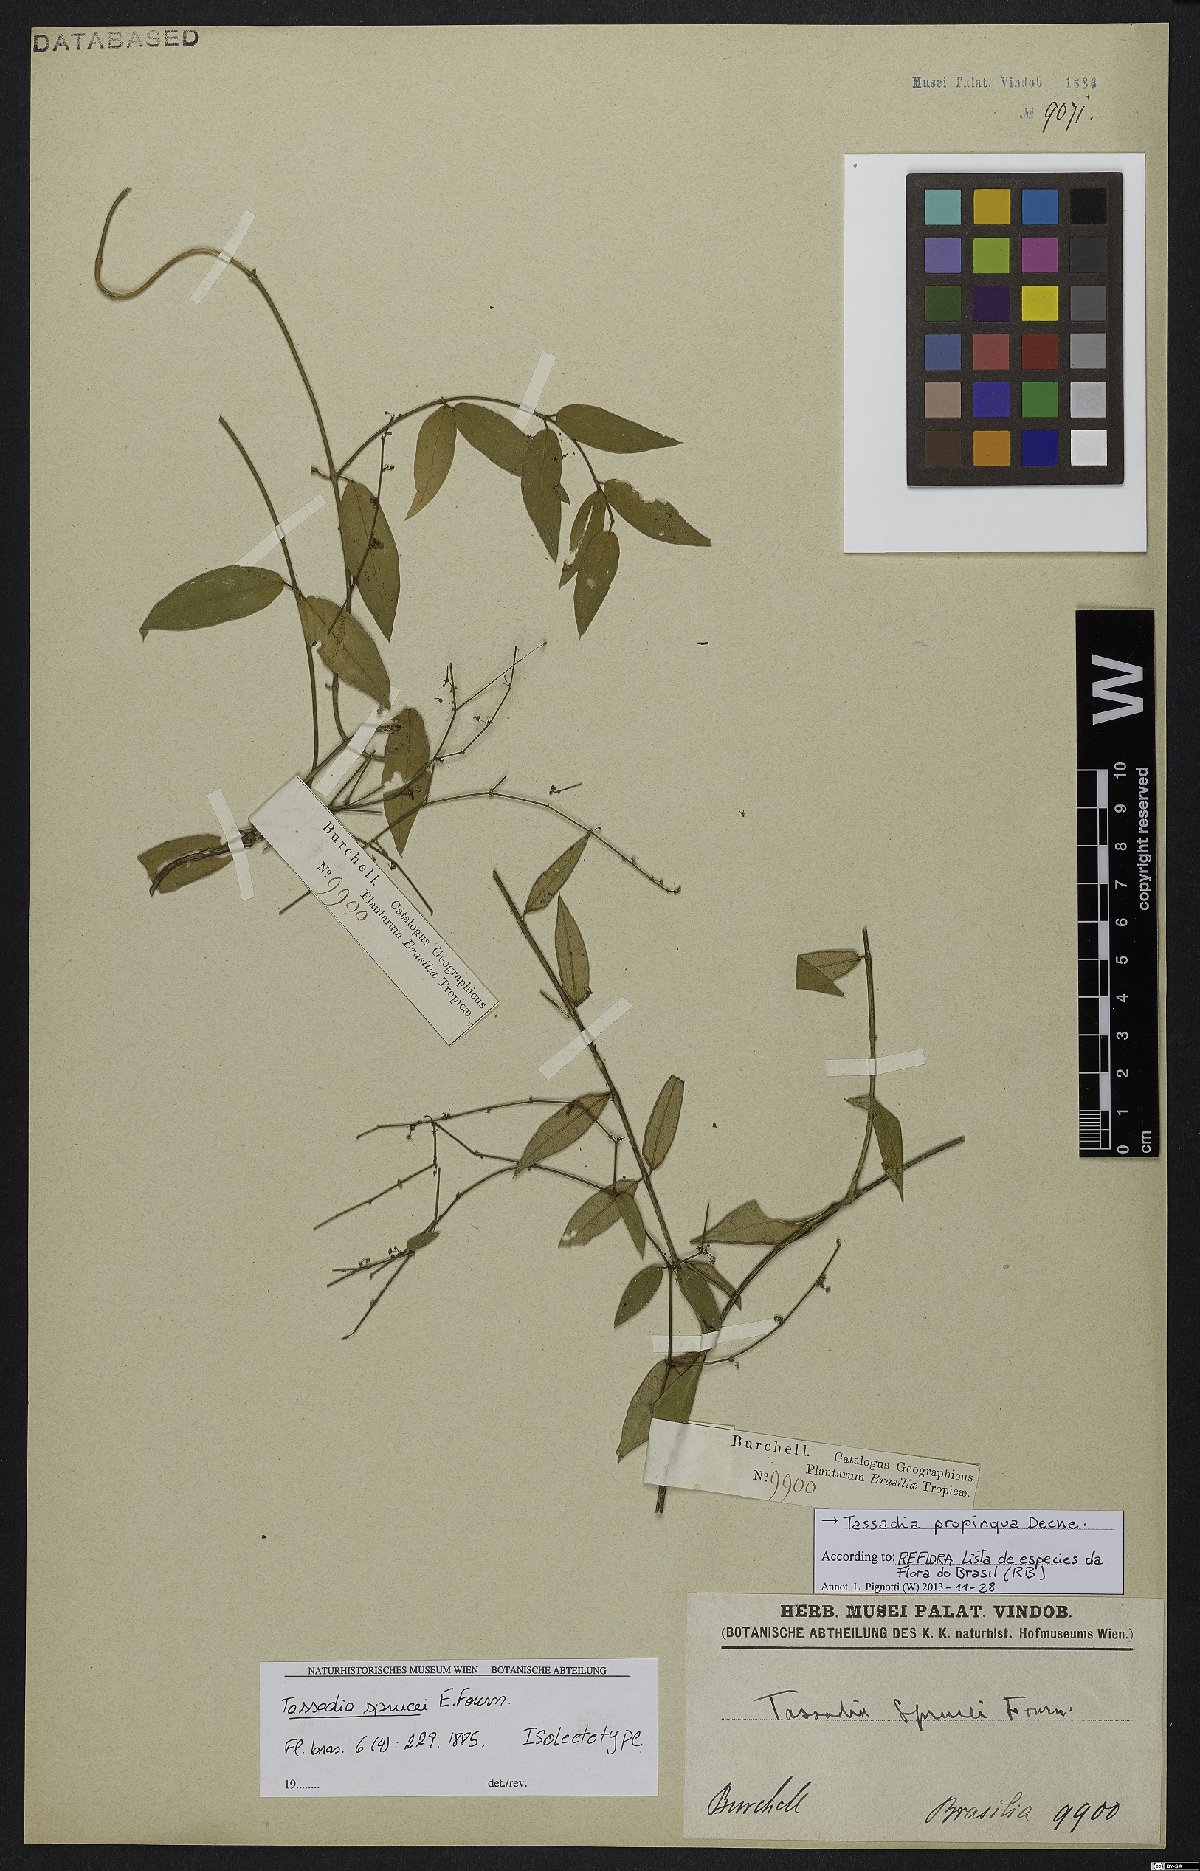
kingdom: Plantae
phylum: Tracheophyta
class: Magnoliopsida
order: Gentianales
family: Apocynaceae
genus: Tassadia
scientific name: Tassadia propinqua
